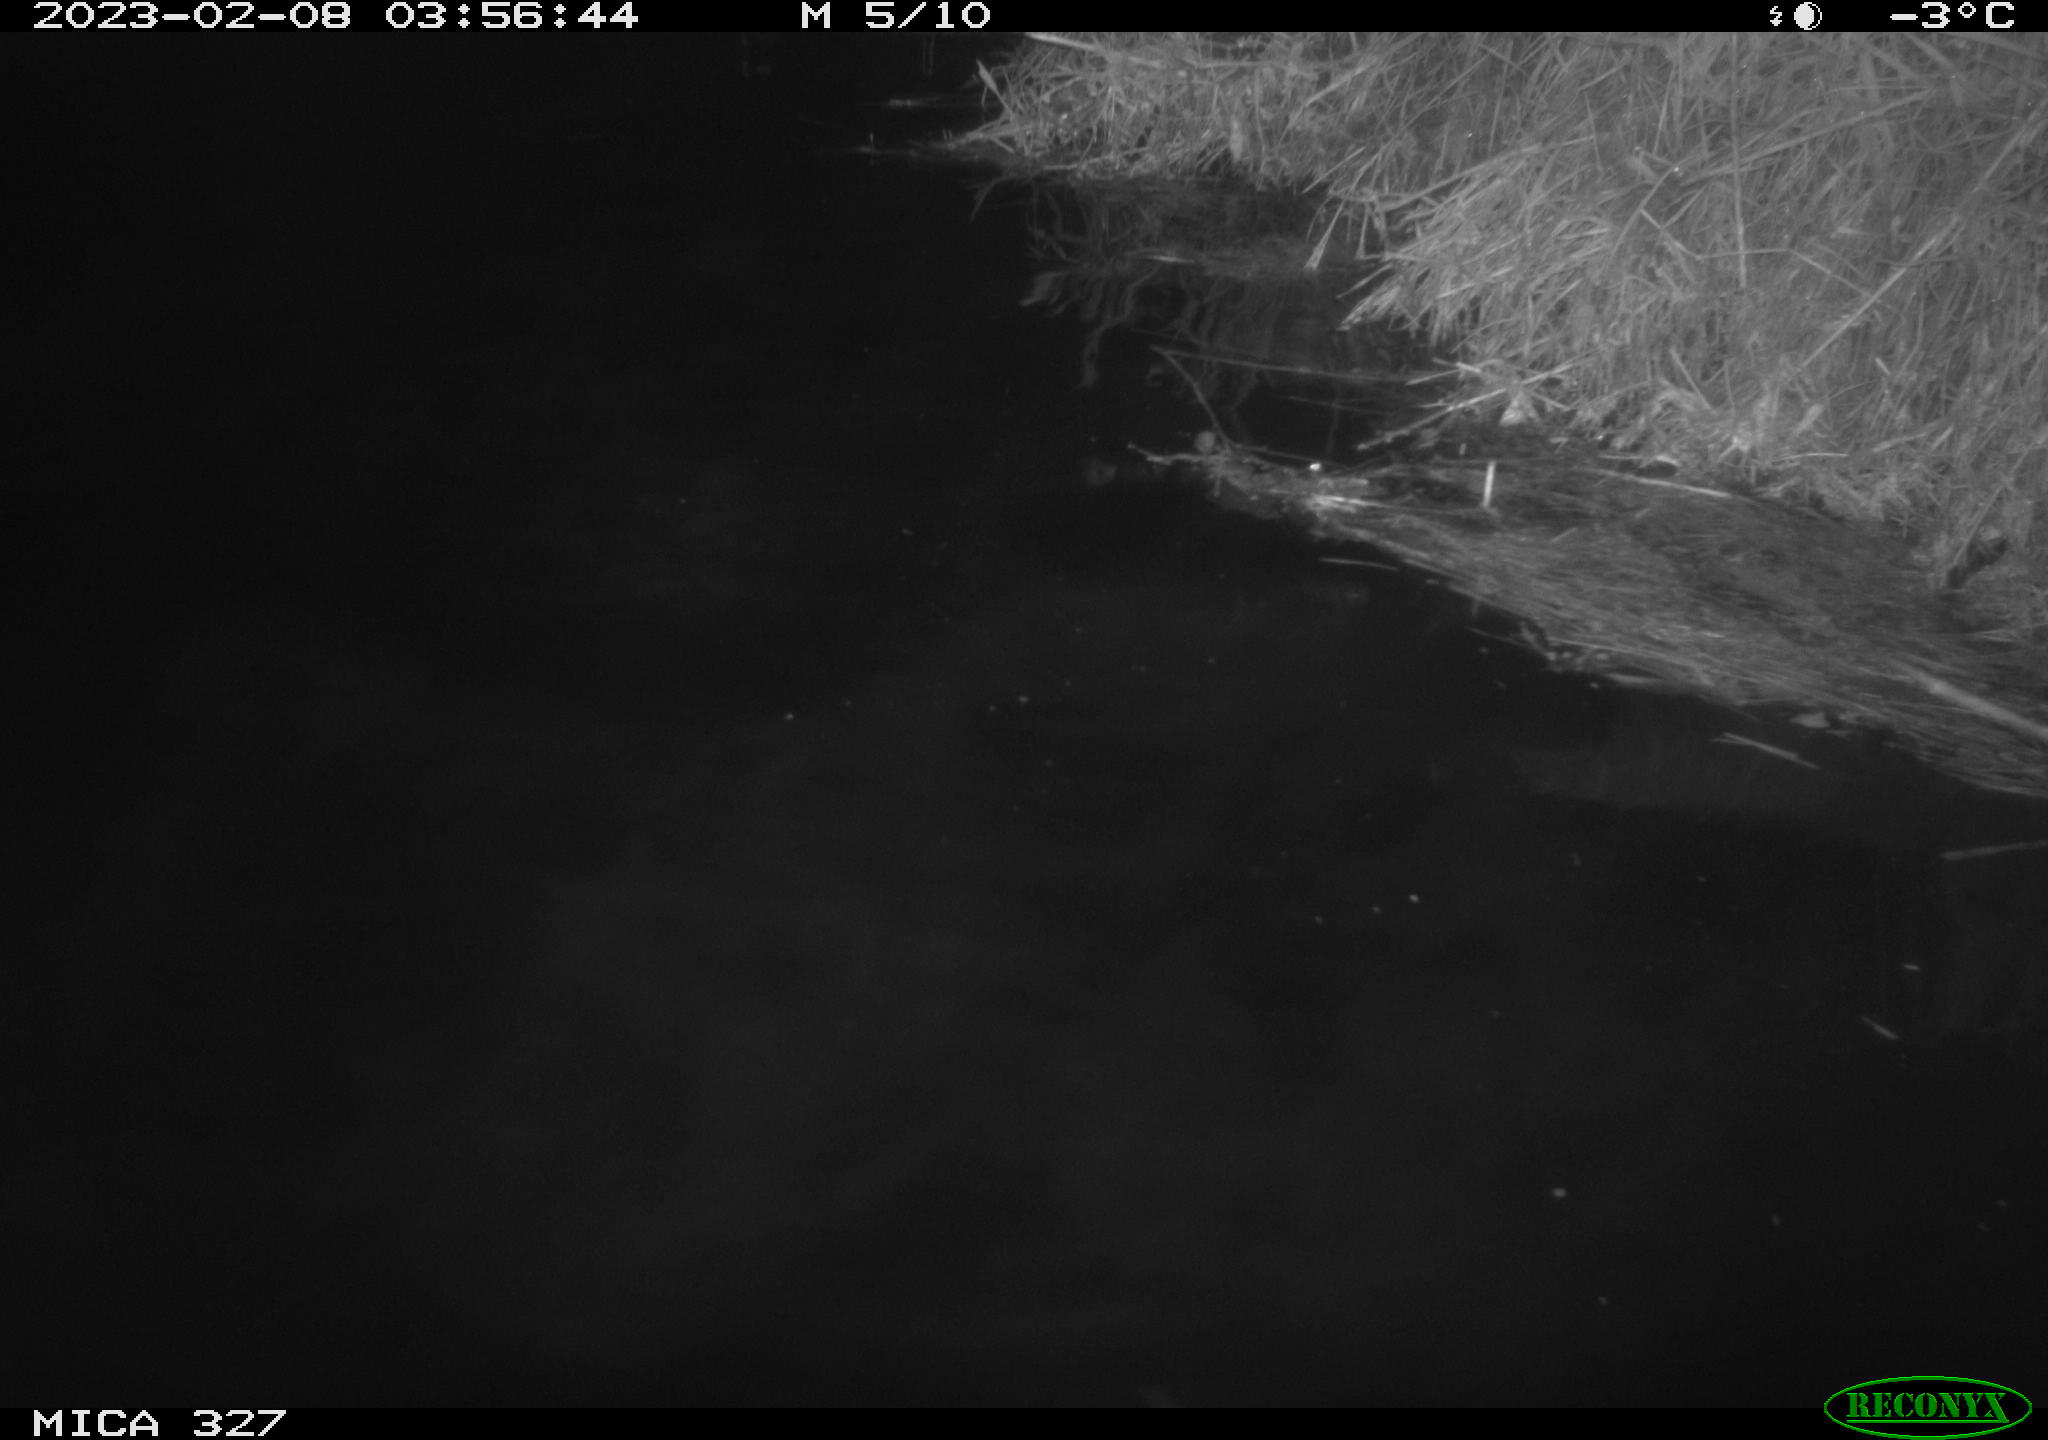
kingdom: Animalia
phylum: Chordata
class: Mammalia
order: Rodentia
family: Cricetidae
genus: Ondatra
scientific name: Ondatra zibethicus
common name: Muskrat
